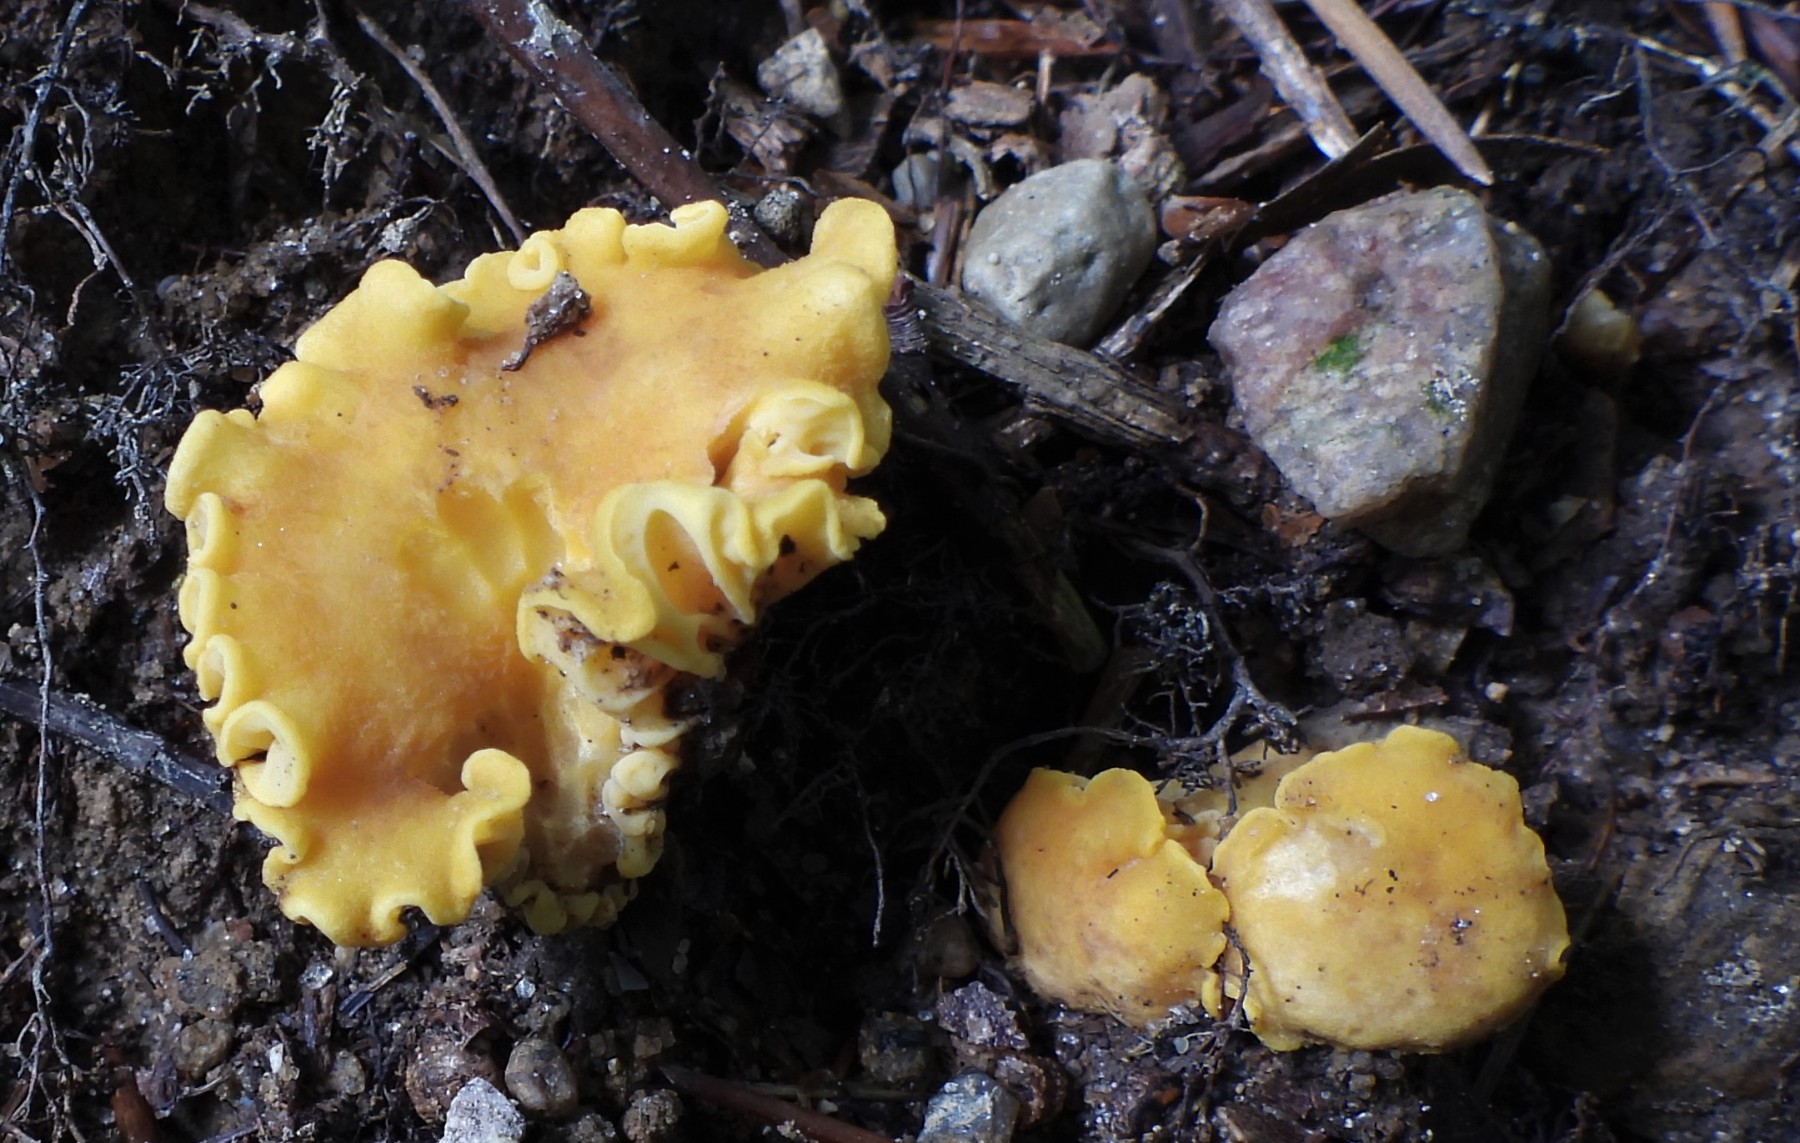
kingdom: Fungi
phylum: Basidiomycota
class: Agaricomycetes
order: Cantharellales
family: Hydnaceae
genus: Cantharellus
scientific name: Cantharellus cibarius
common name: almindelig kantarel
